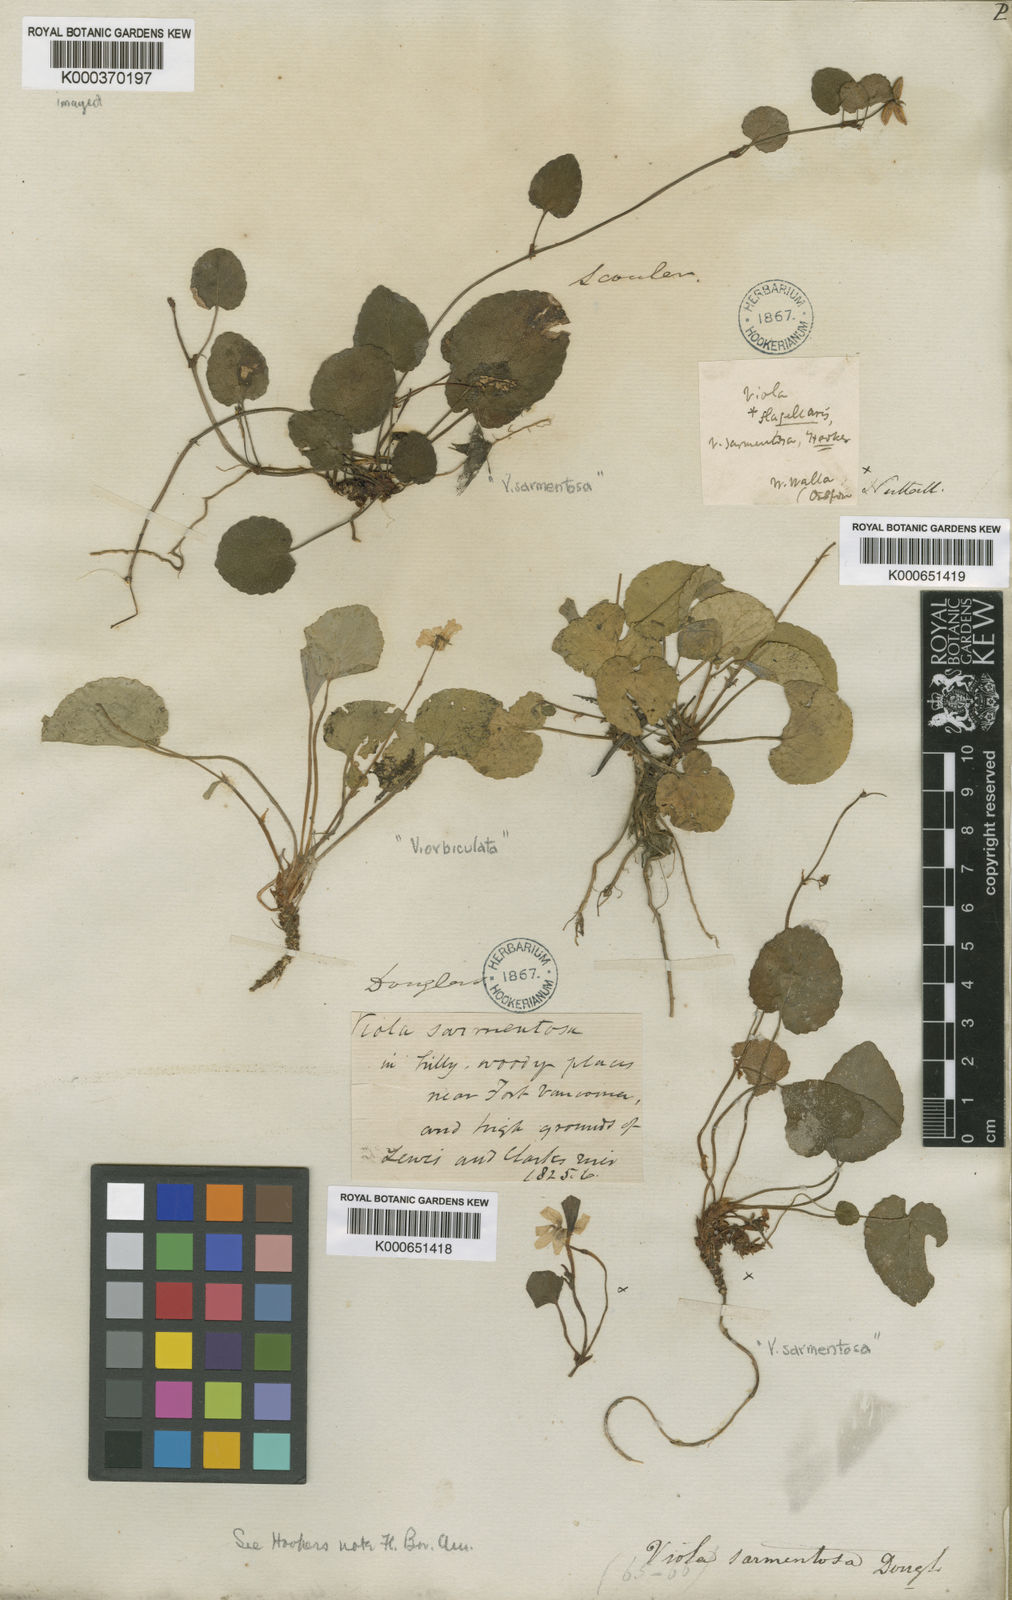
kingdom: Plantae
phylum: Tracheophyta
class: Magnoliopsida
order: Malpighiales
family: Violaceae
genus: Viola
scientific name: Viola sempervirens
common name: Evergreen violet
